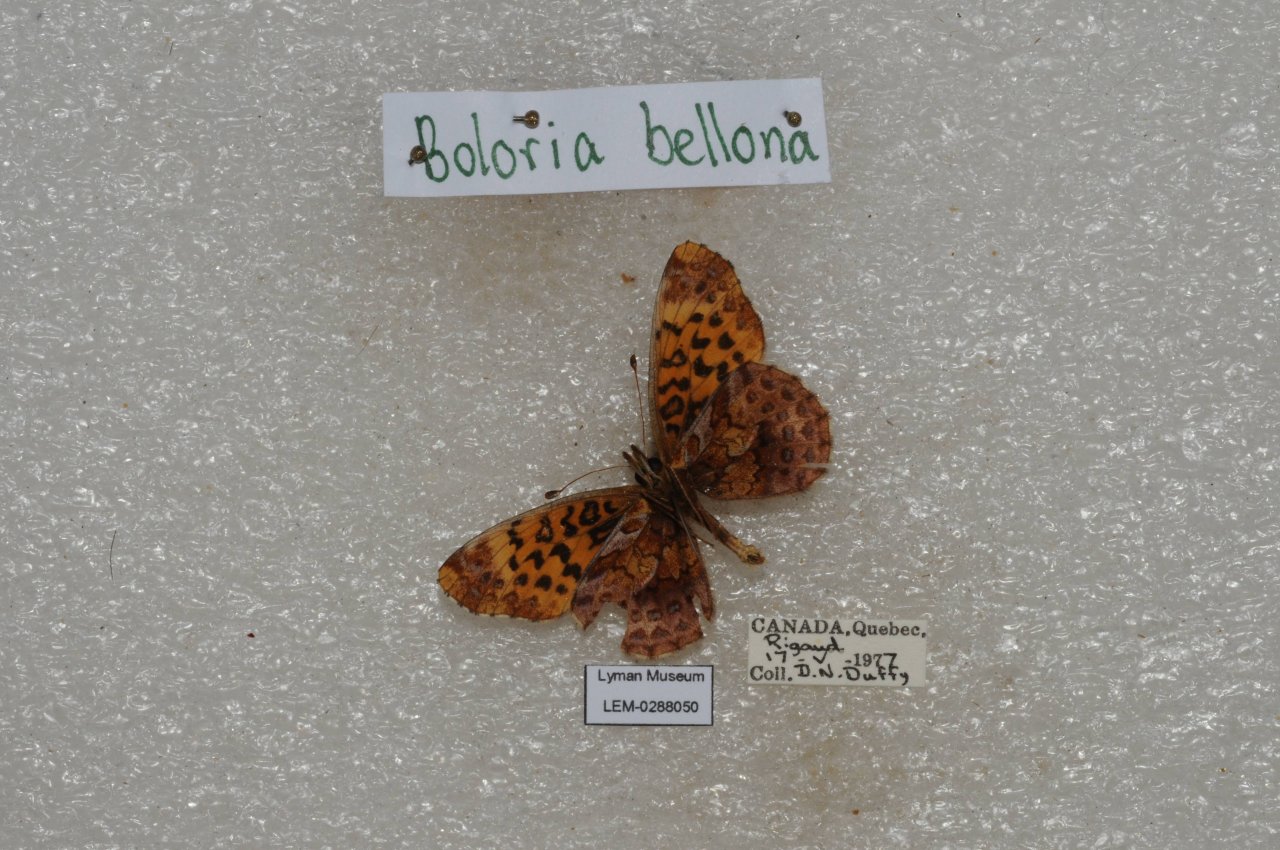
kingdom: Animalia
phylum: Arthropoda
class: Insecta
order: Lepidoptera
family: Nymphalidae
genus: Clossiana
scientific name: Clossiana toddi
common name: Meadow Fritillary
